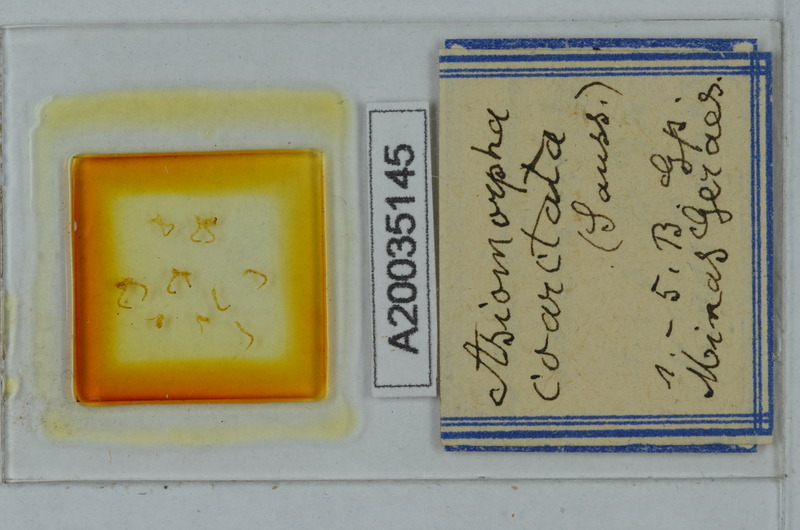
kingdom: Animalia
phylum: Arthropoda
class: Diplopoda
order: Polydesmida
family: Paradoxosomatidae
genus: Asiomorpha
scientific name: Asiomorpha coarctata
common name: Millipede
